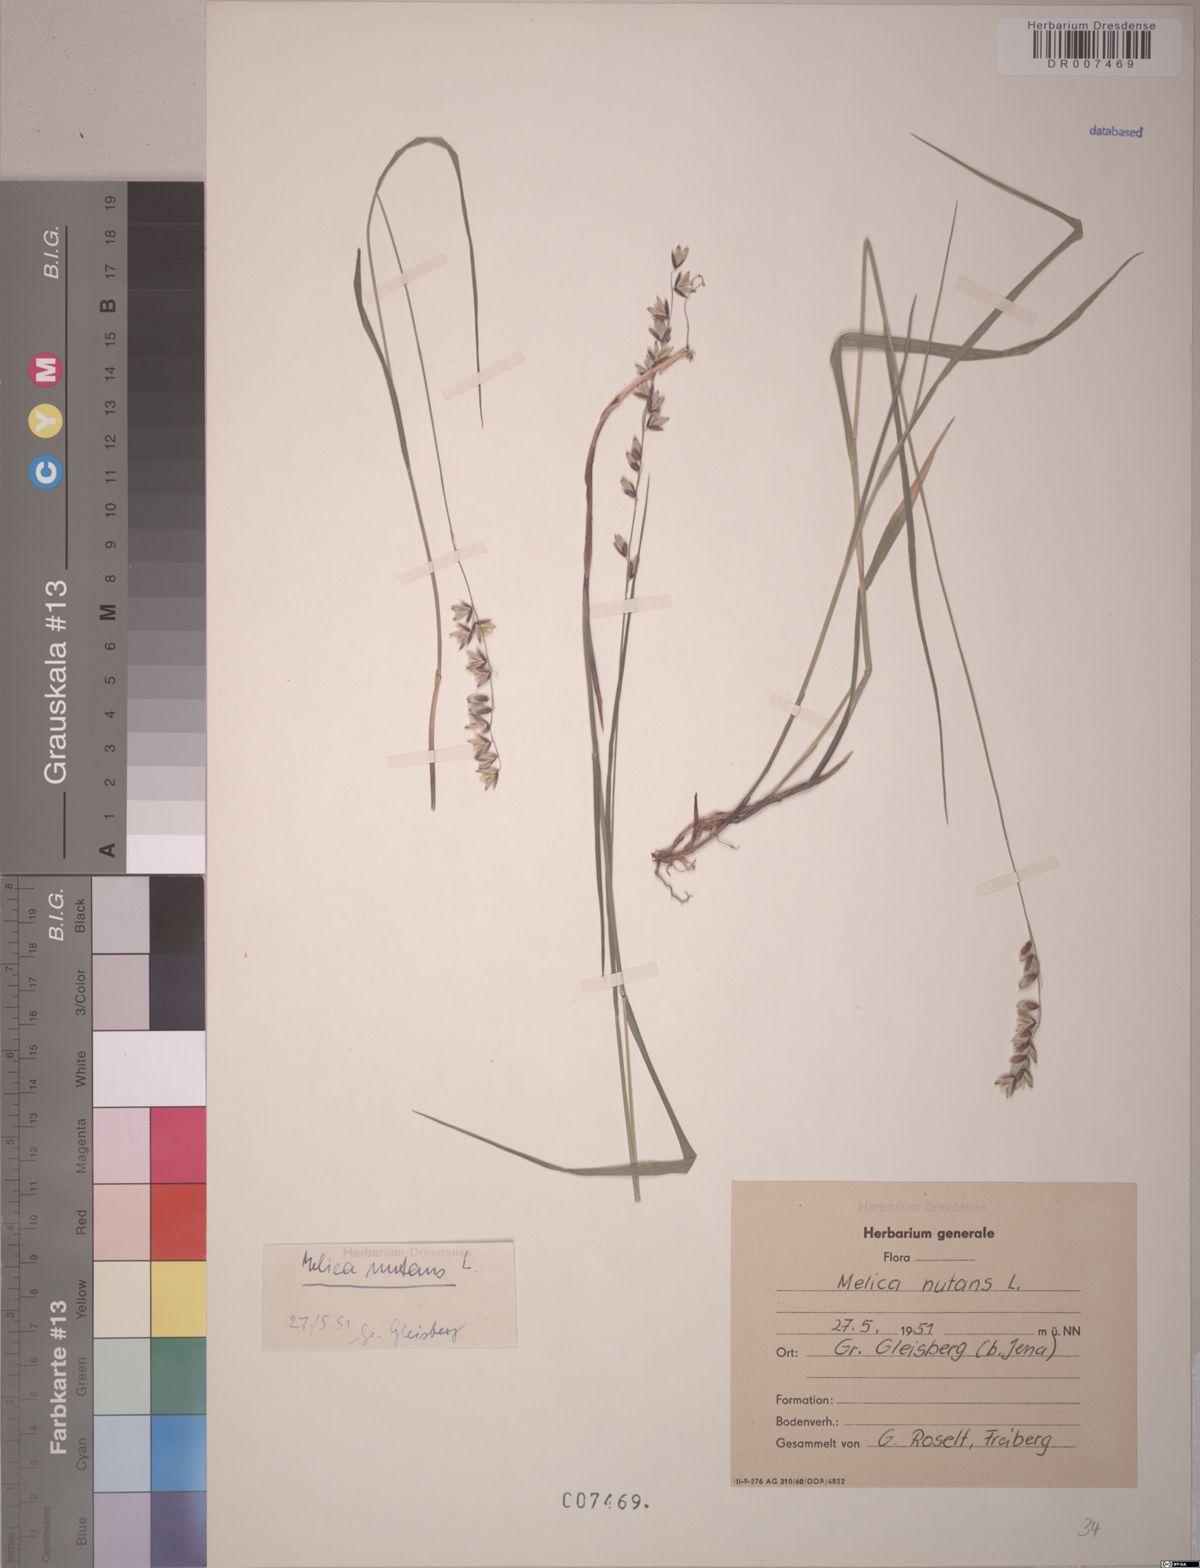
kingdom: Plantae
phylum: Tracheophyta
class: Liliopsida
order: Poales
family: Poaceae
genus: Melica
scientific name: Melica nutans
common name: Mountain melick
